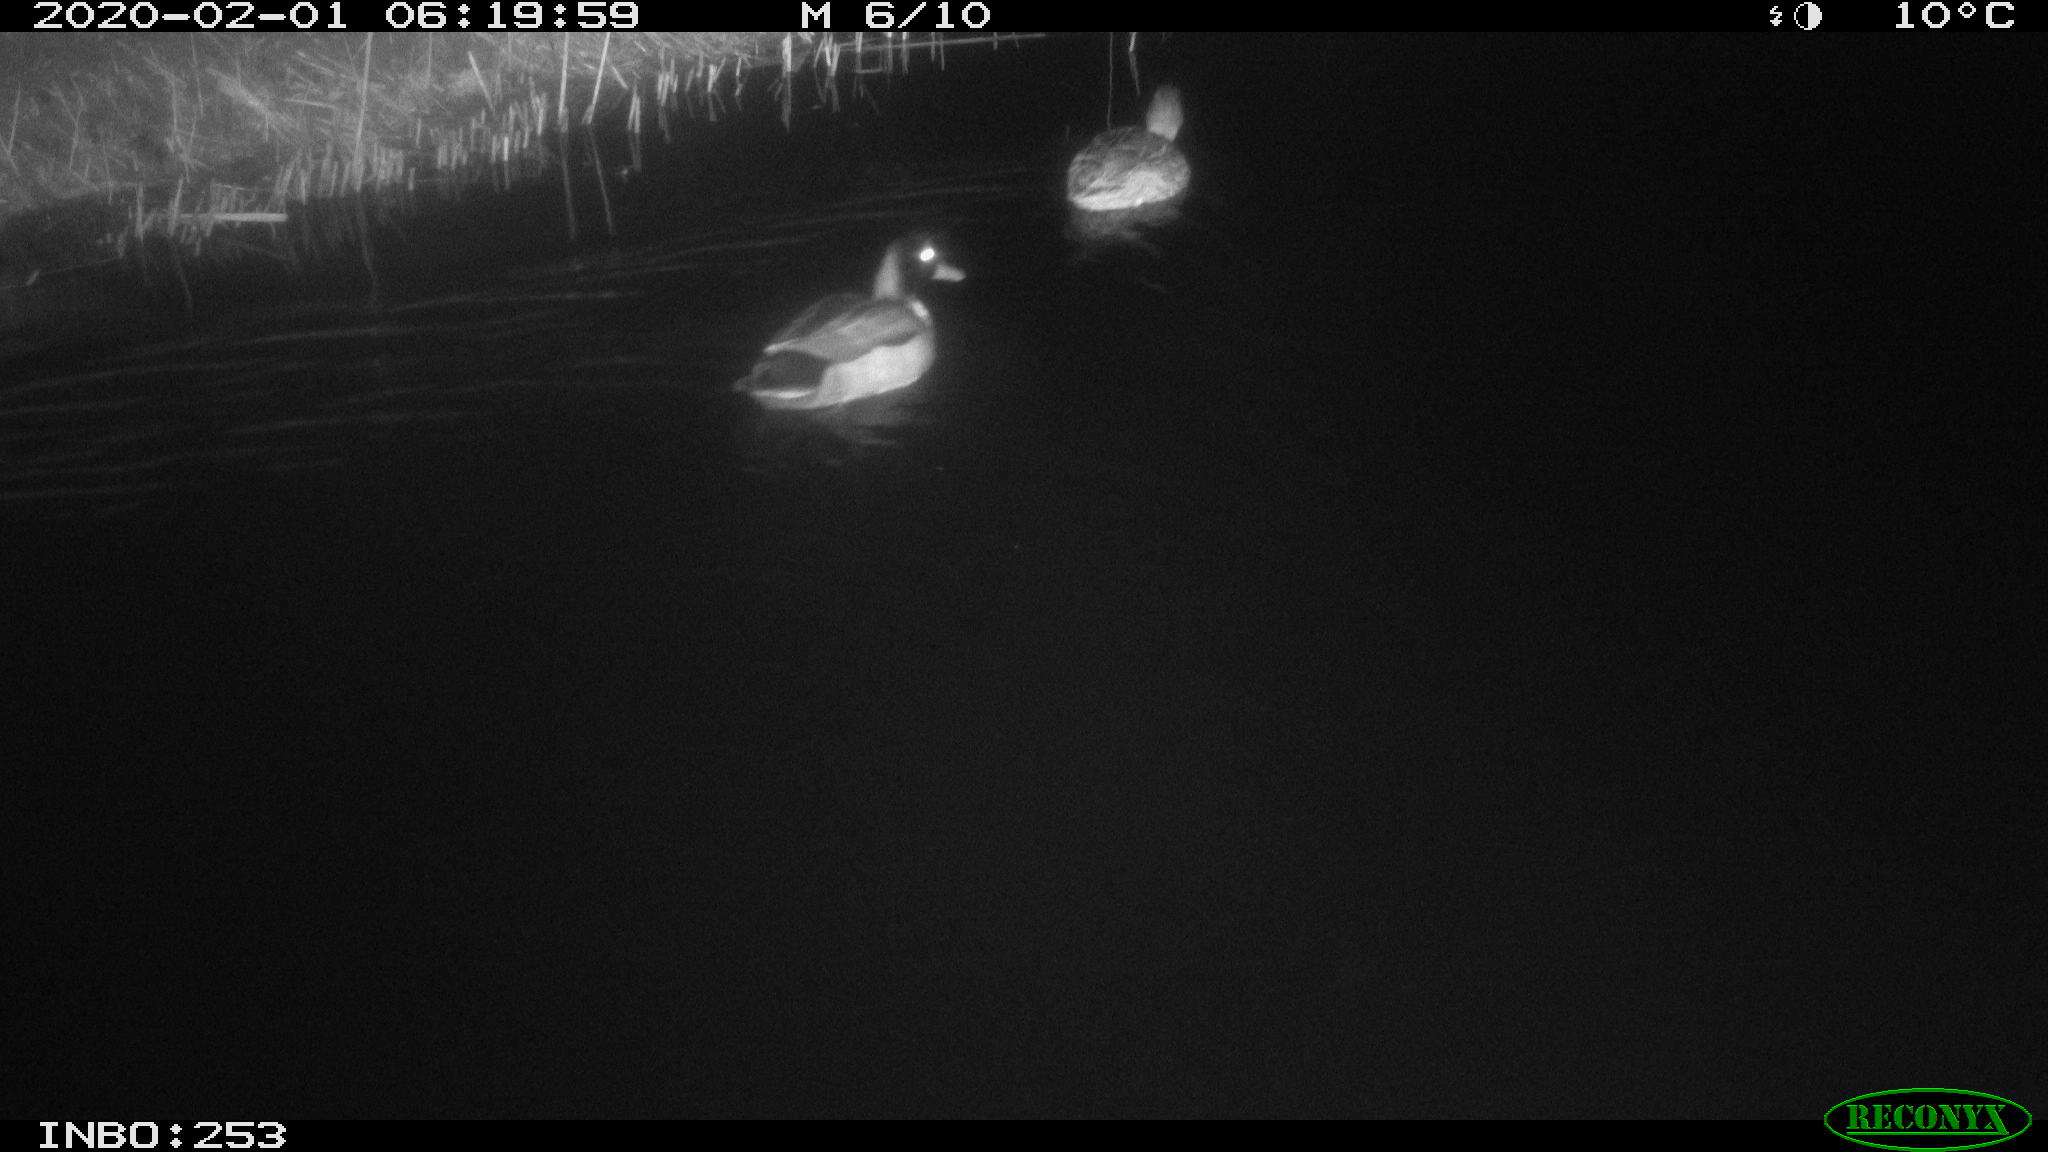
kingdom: Animalia
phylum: Chordata
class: Aves
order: Anseriformes
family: Anatidae
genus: Anas
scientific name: Anas platyrhynchos
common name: Mallard
